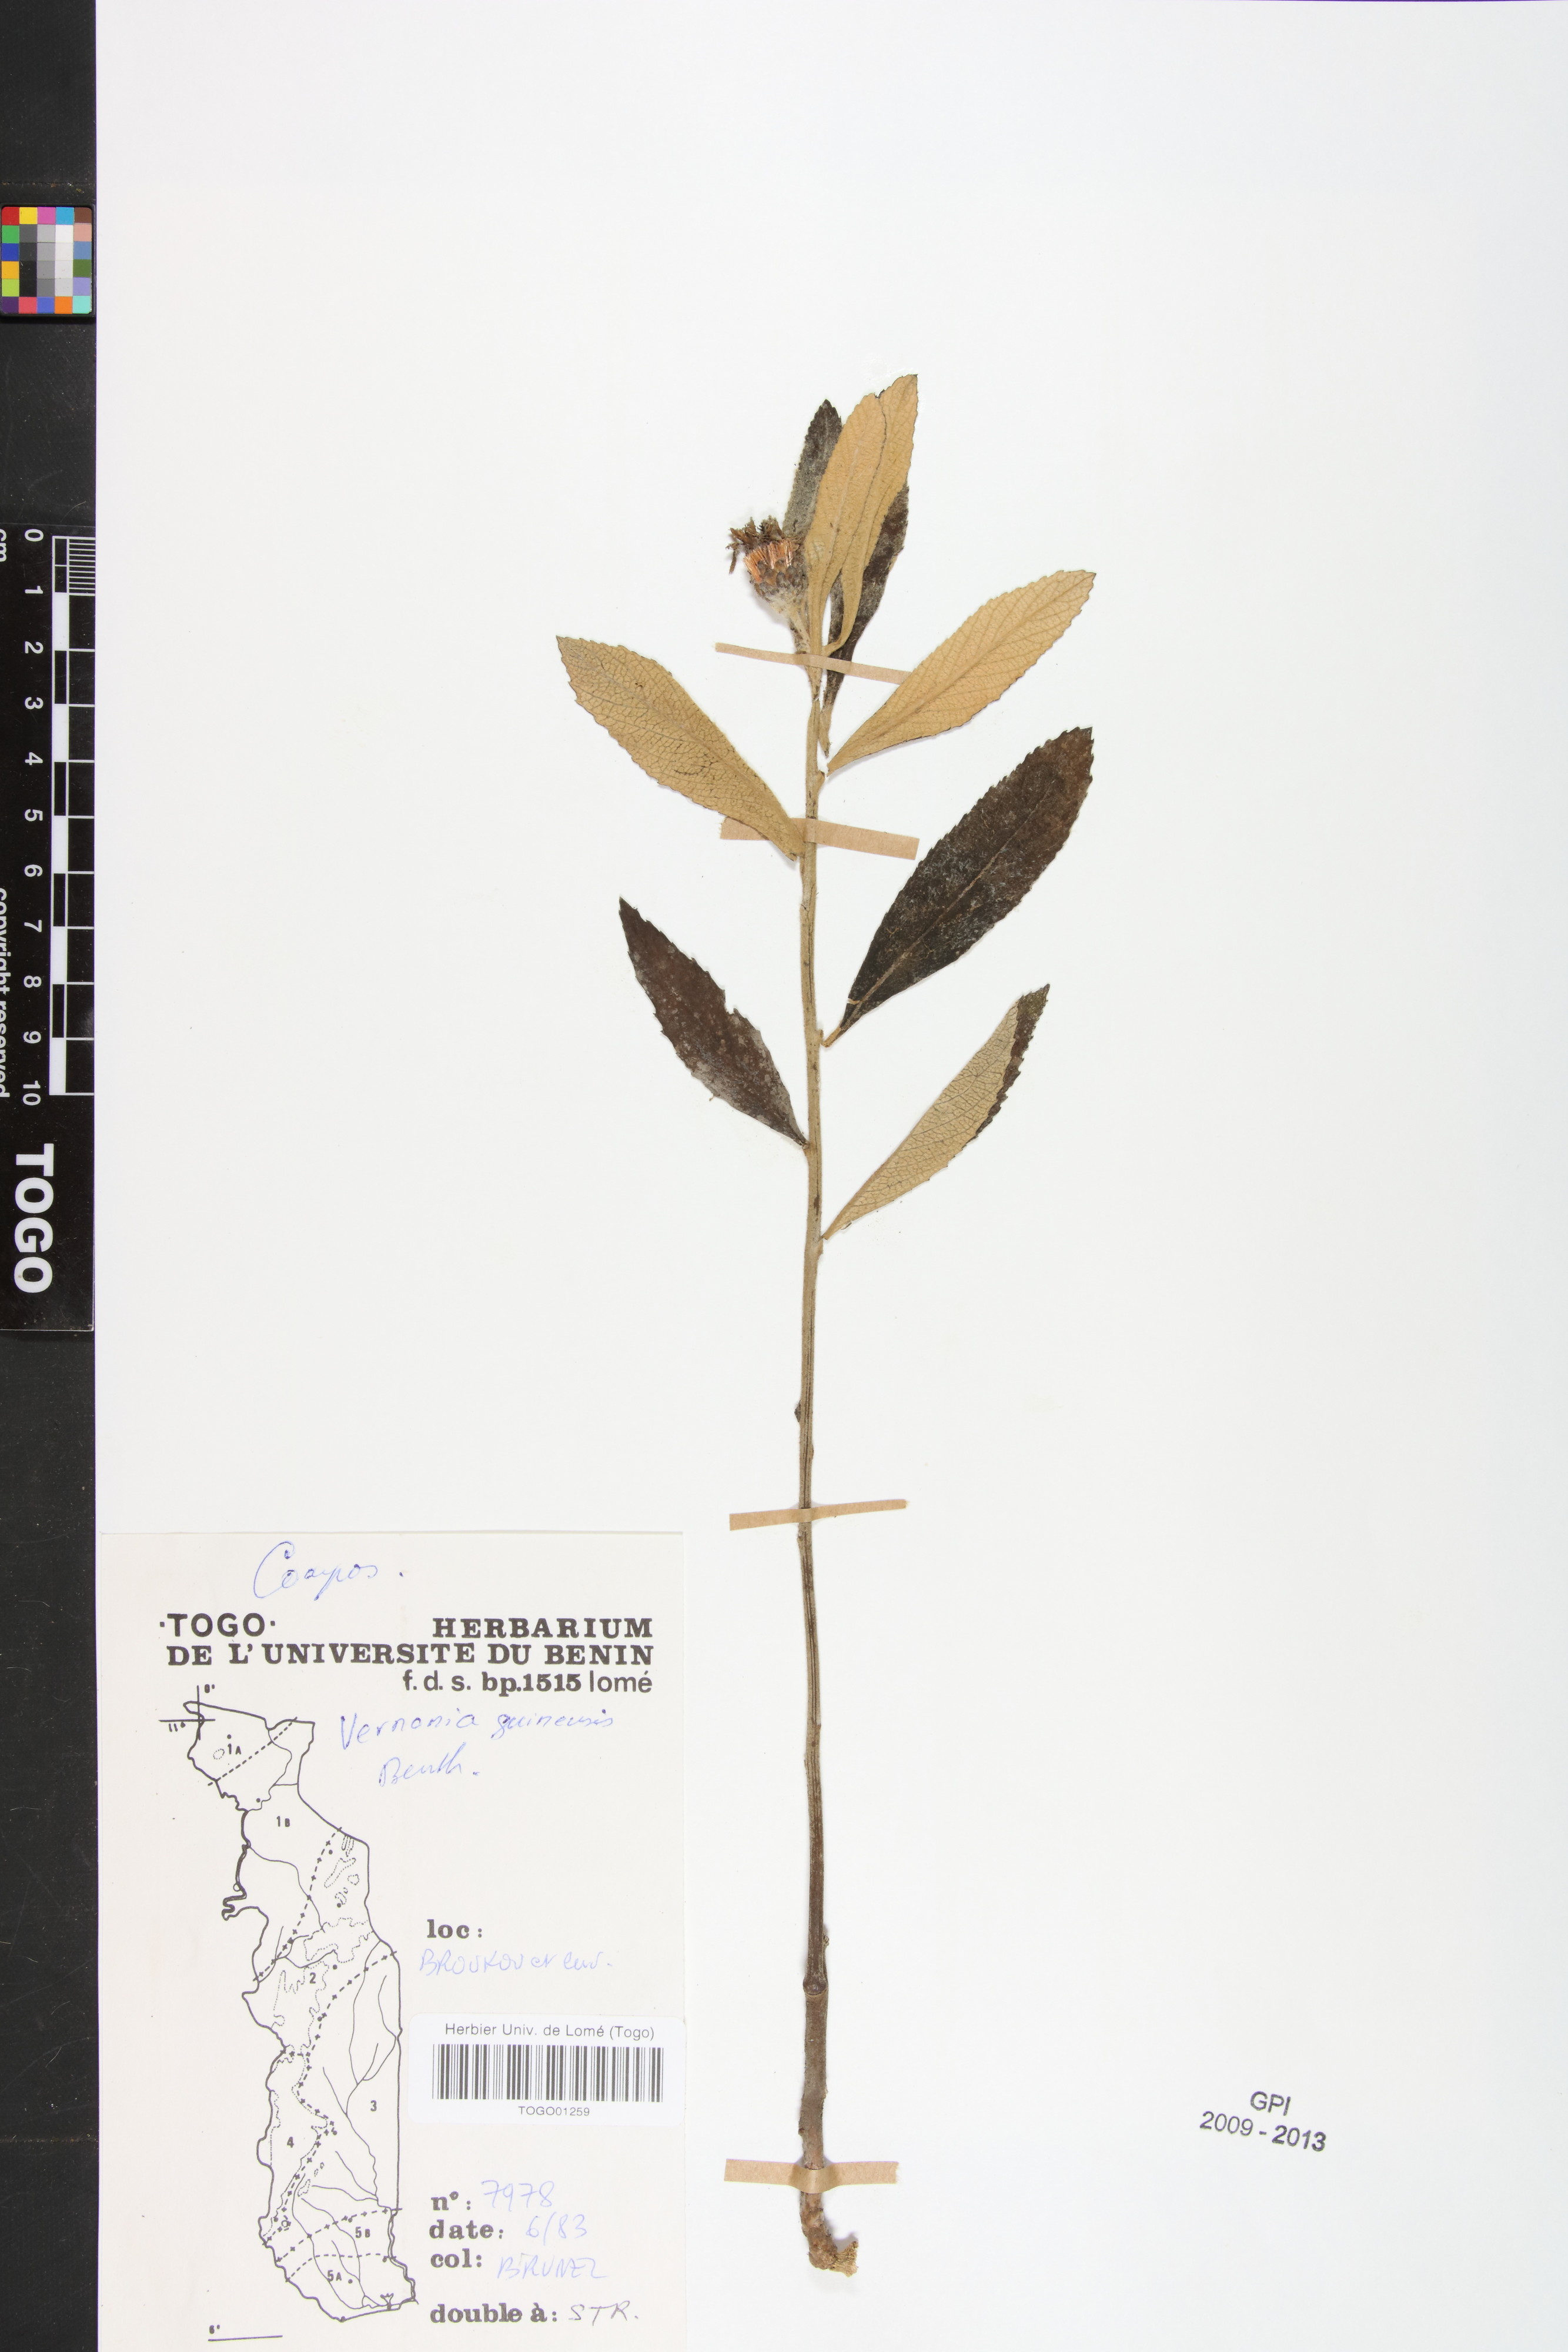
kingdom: Plantae
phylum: Tracheophyta
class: Magnoliopsida
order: Asterales
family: Asteraceae
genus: Baccharoides
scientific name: Baccharoides guineensis
